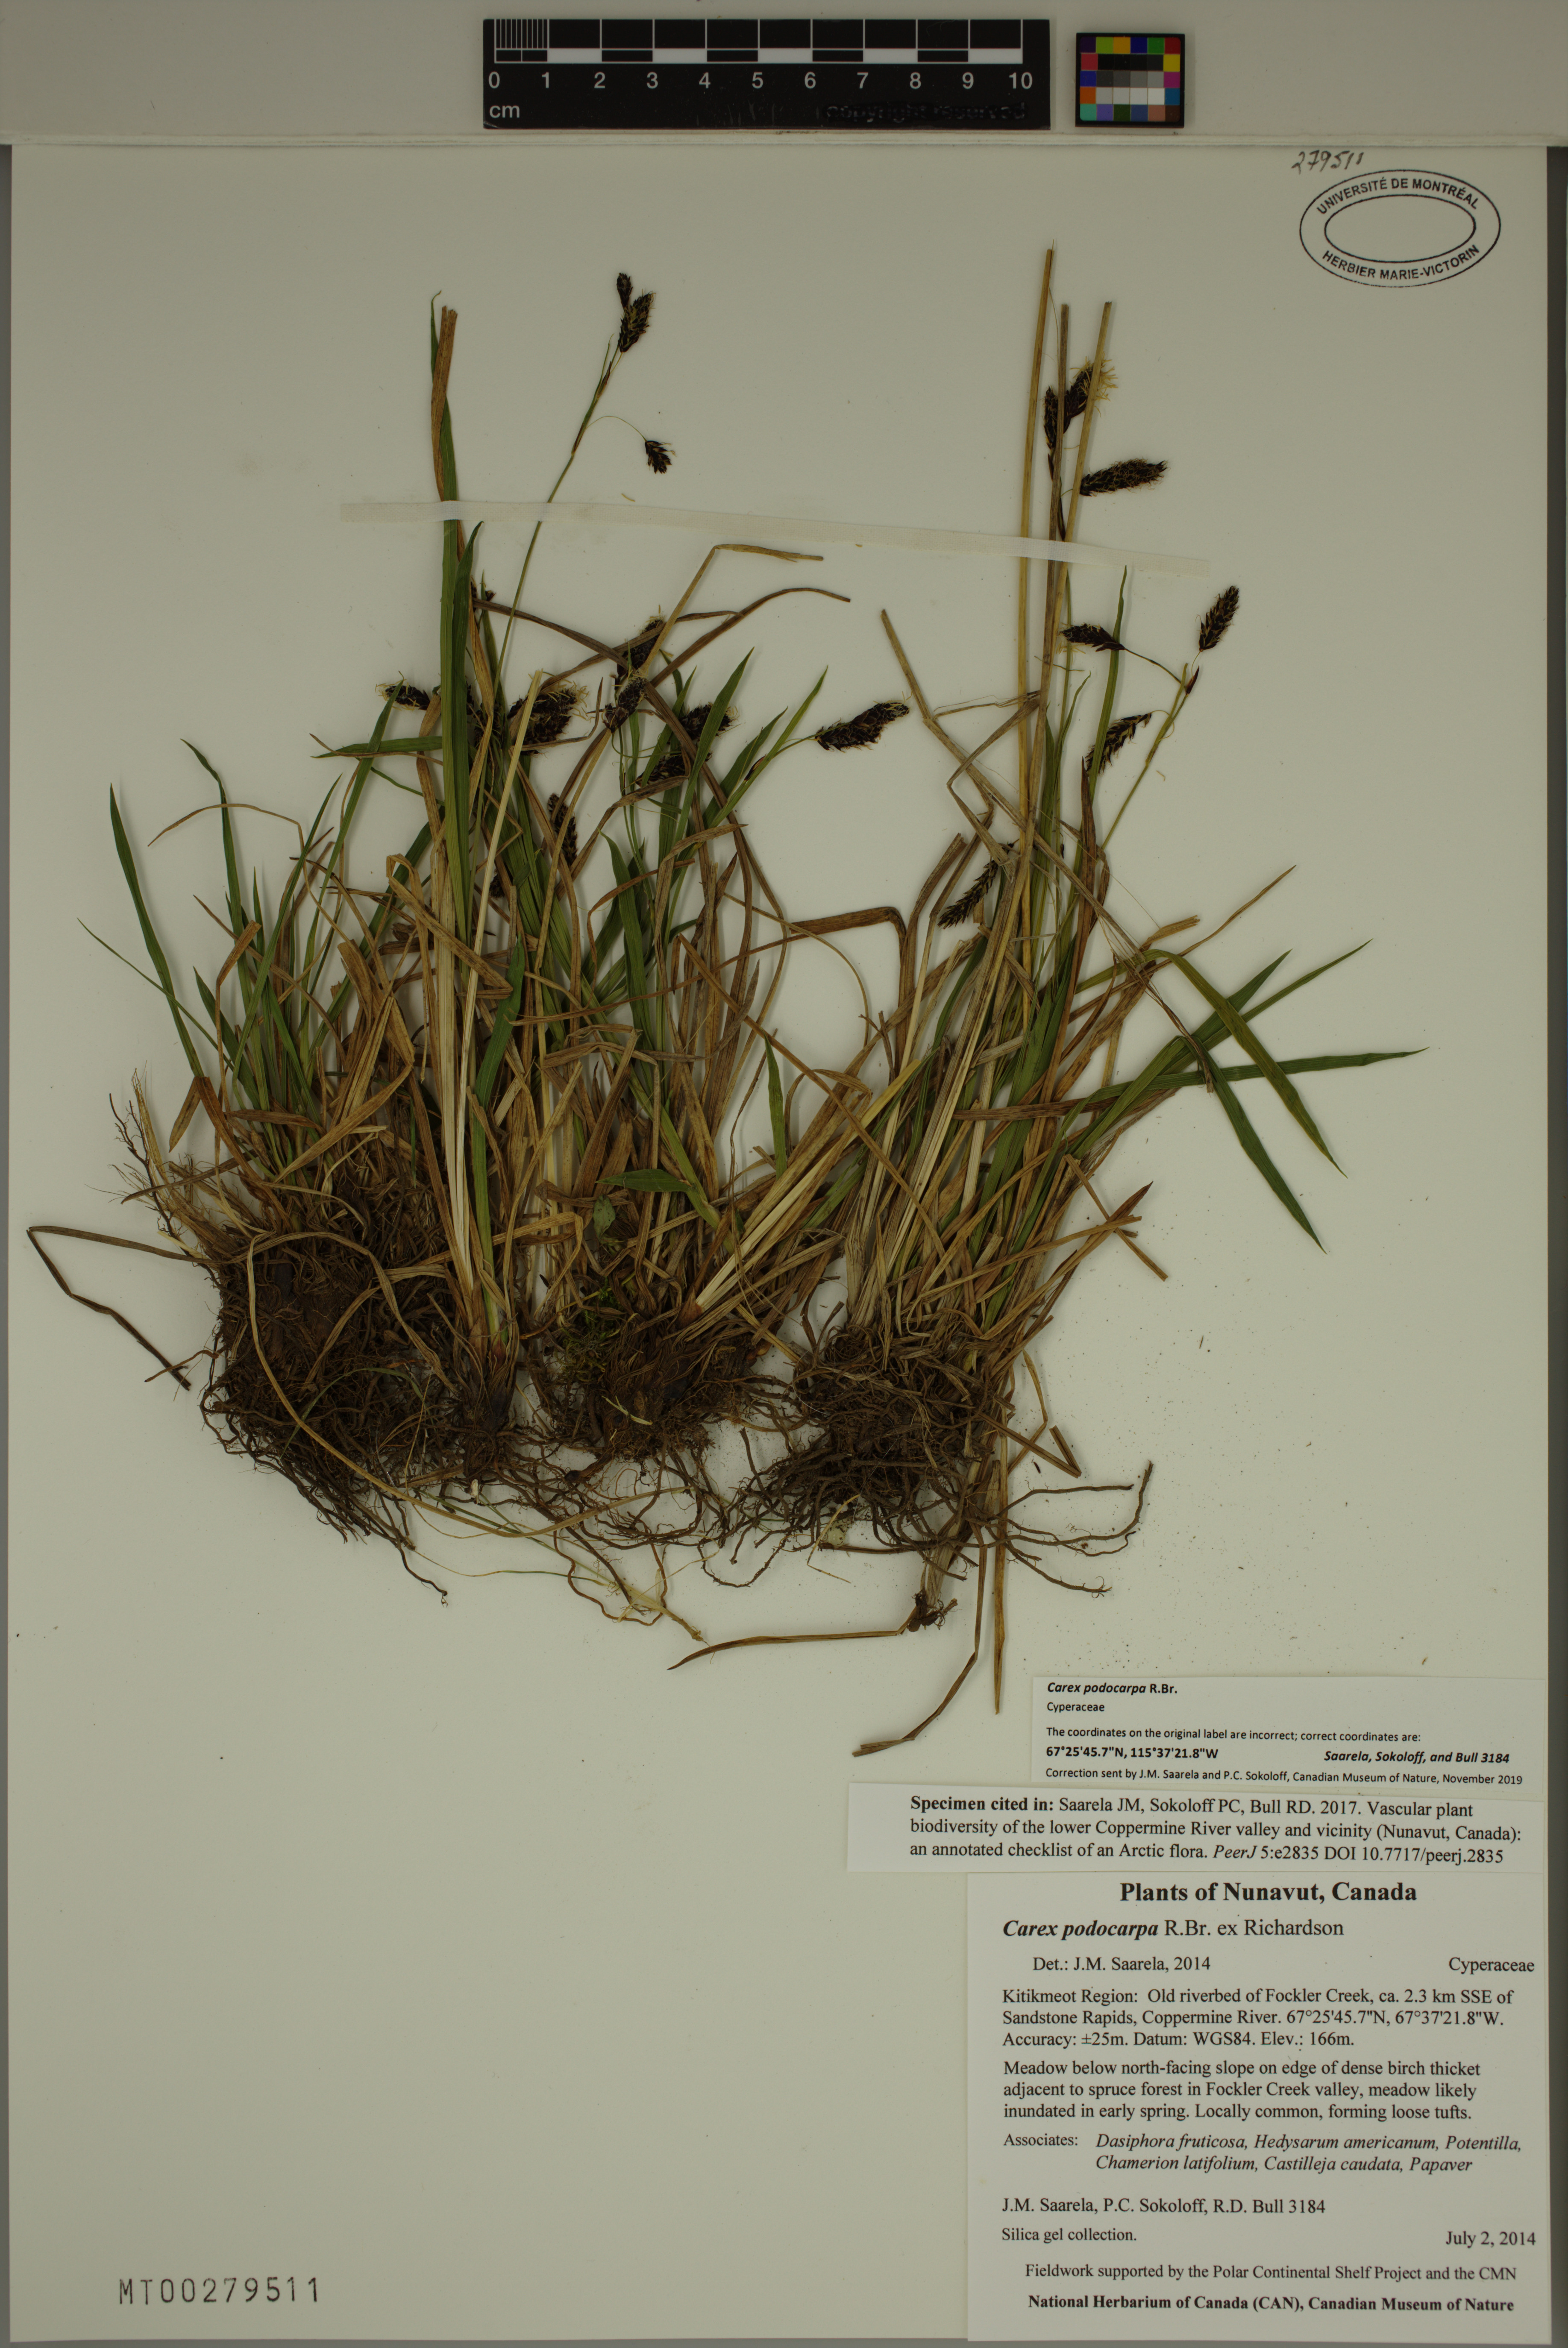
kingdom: Plantae
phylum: Tracheophyta
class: Liliopsida
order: Poales
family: Cyperaceae
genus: Carex
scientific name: Carex podocarpa
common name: Alpine sedge
